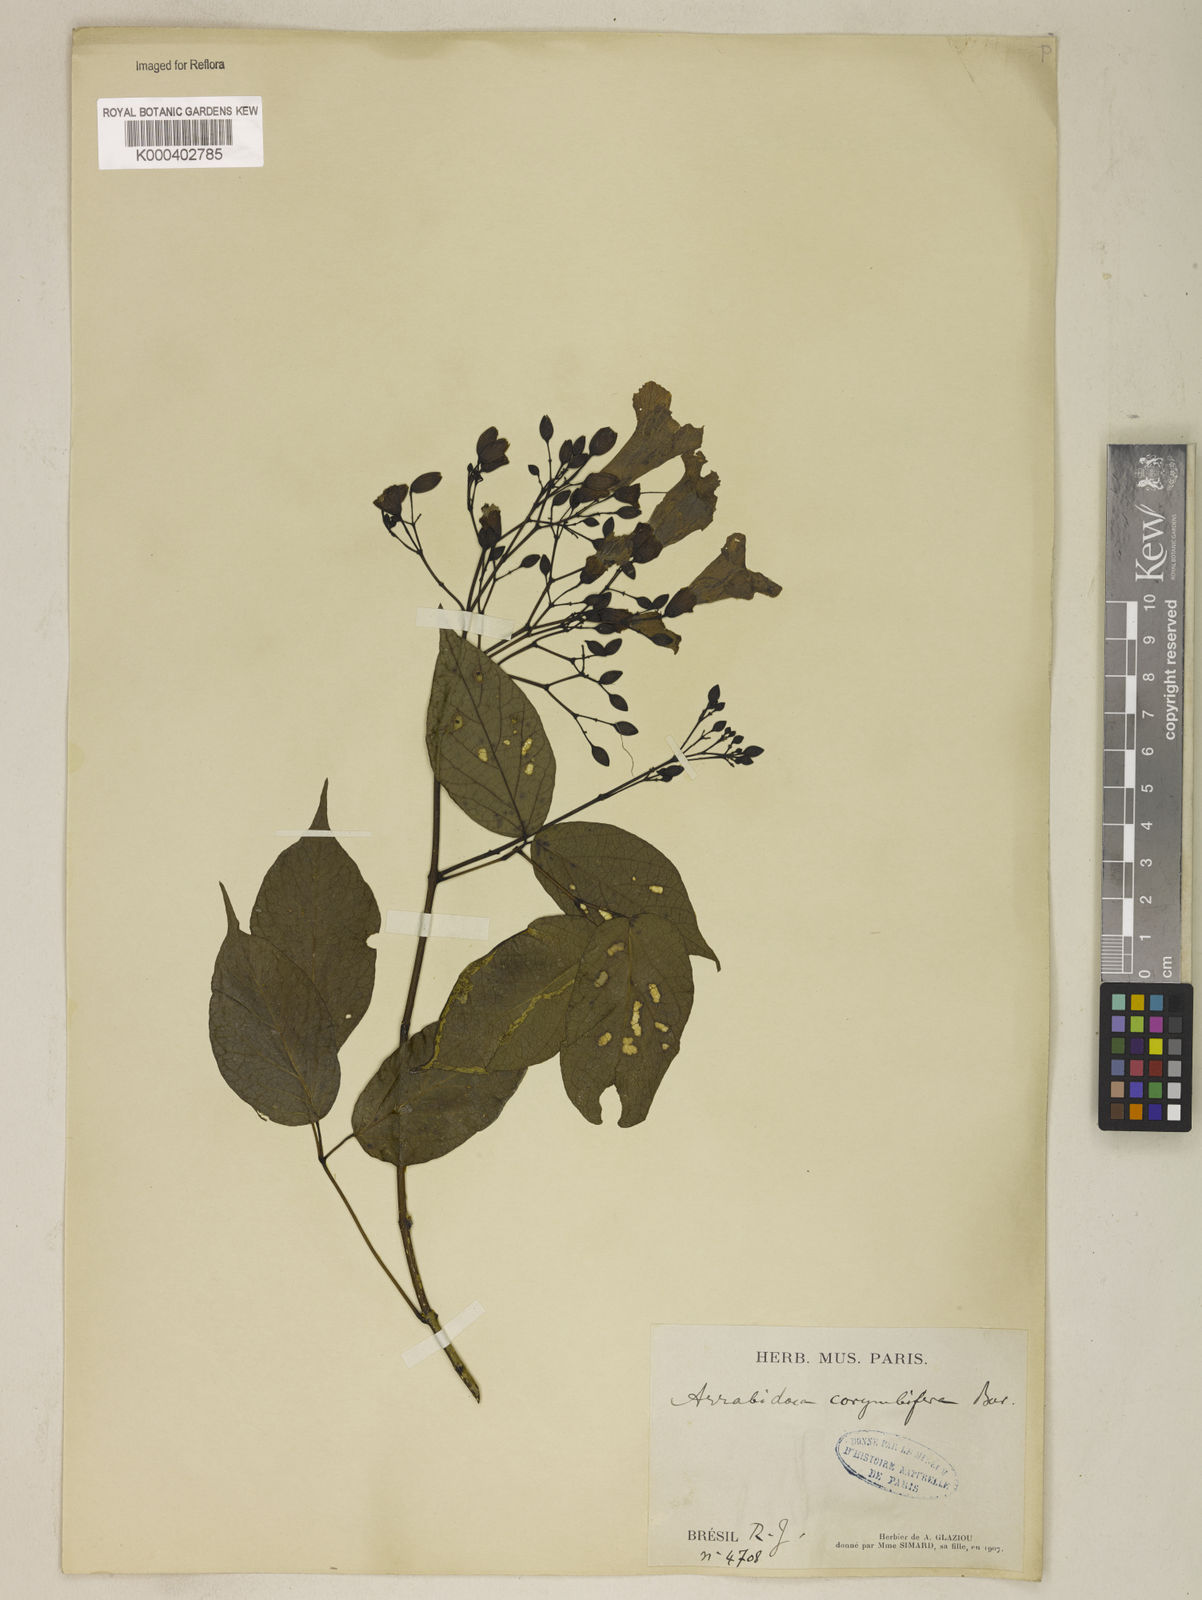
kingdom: Plantae
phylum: Tracheophyta
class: Magnoliopsida
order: Lamiales
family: Bignoniaceae
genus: Tanaecium
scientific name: Tanaecium selloi
